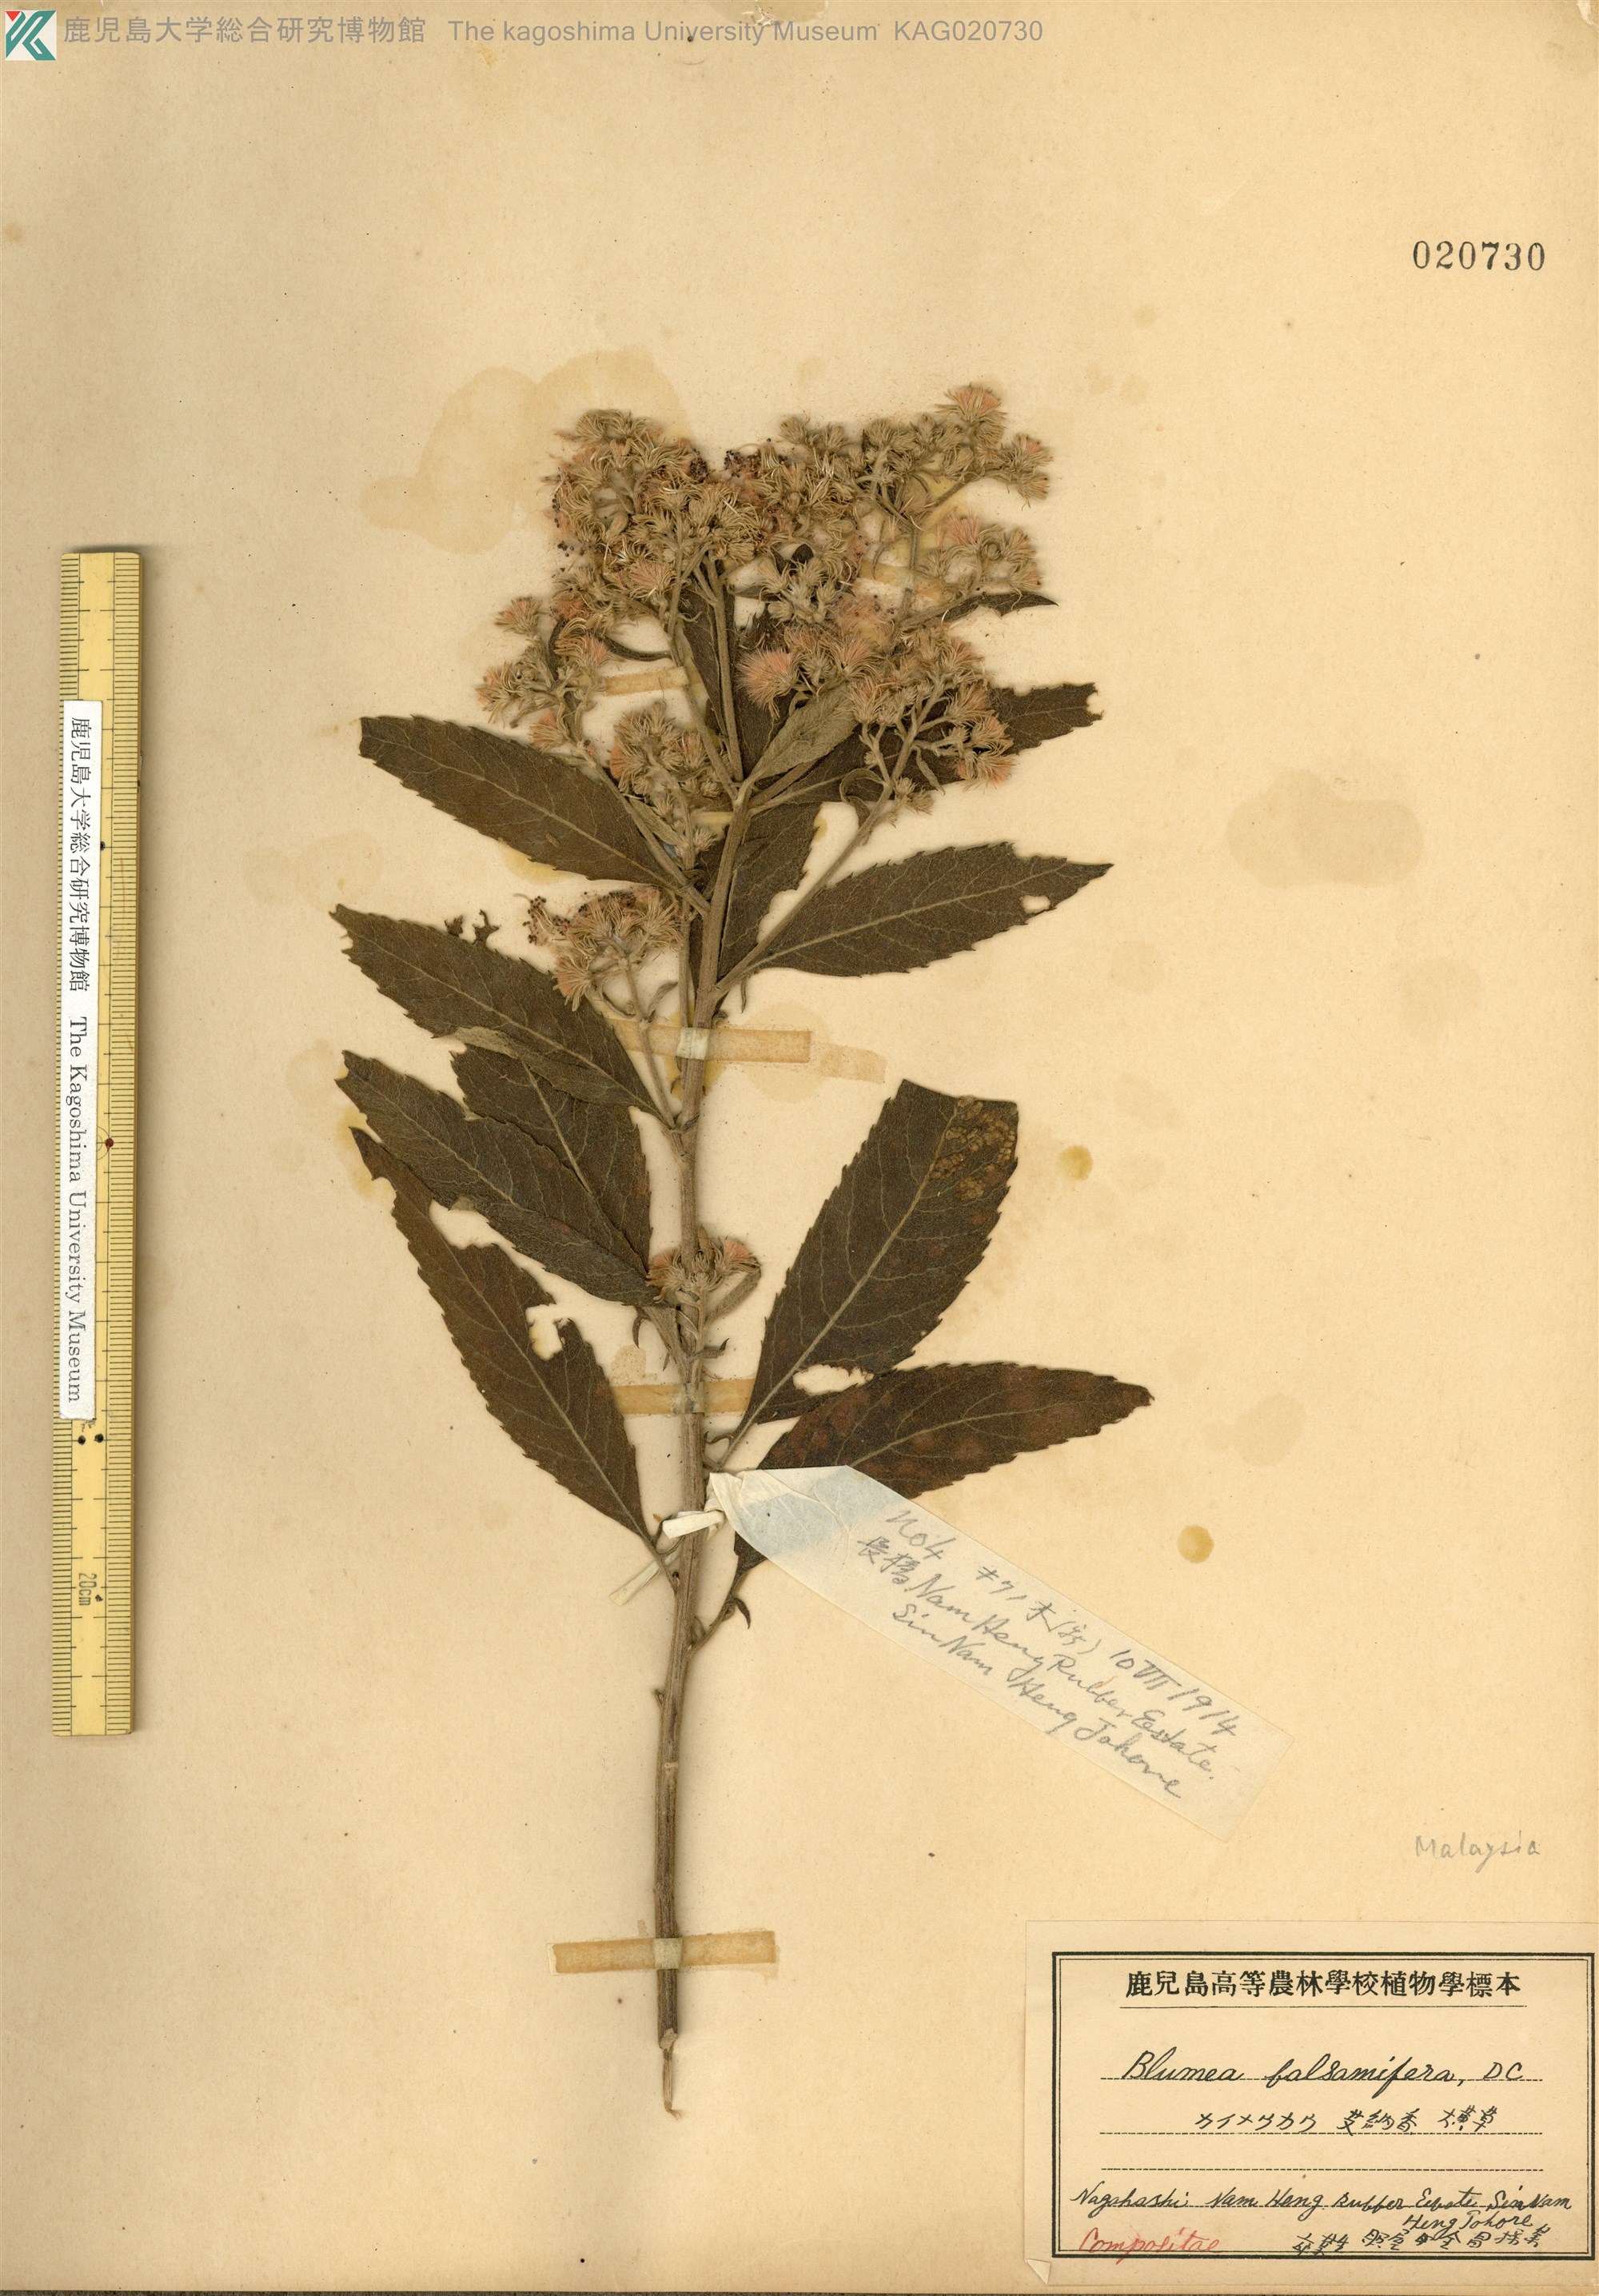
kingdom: Plantae
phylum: Tracheophyta
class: Magnoliopsida
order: Asterales
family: Asteraceae
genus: Blumea
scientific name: Blumea balsamifera
